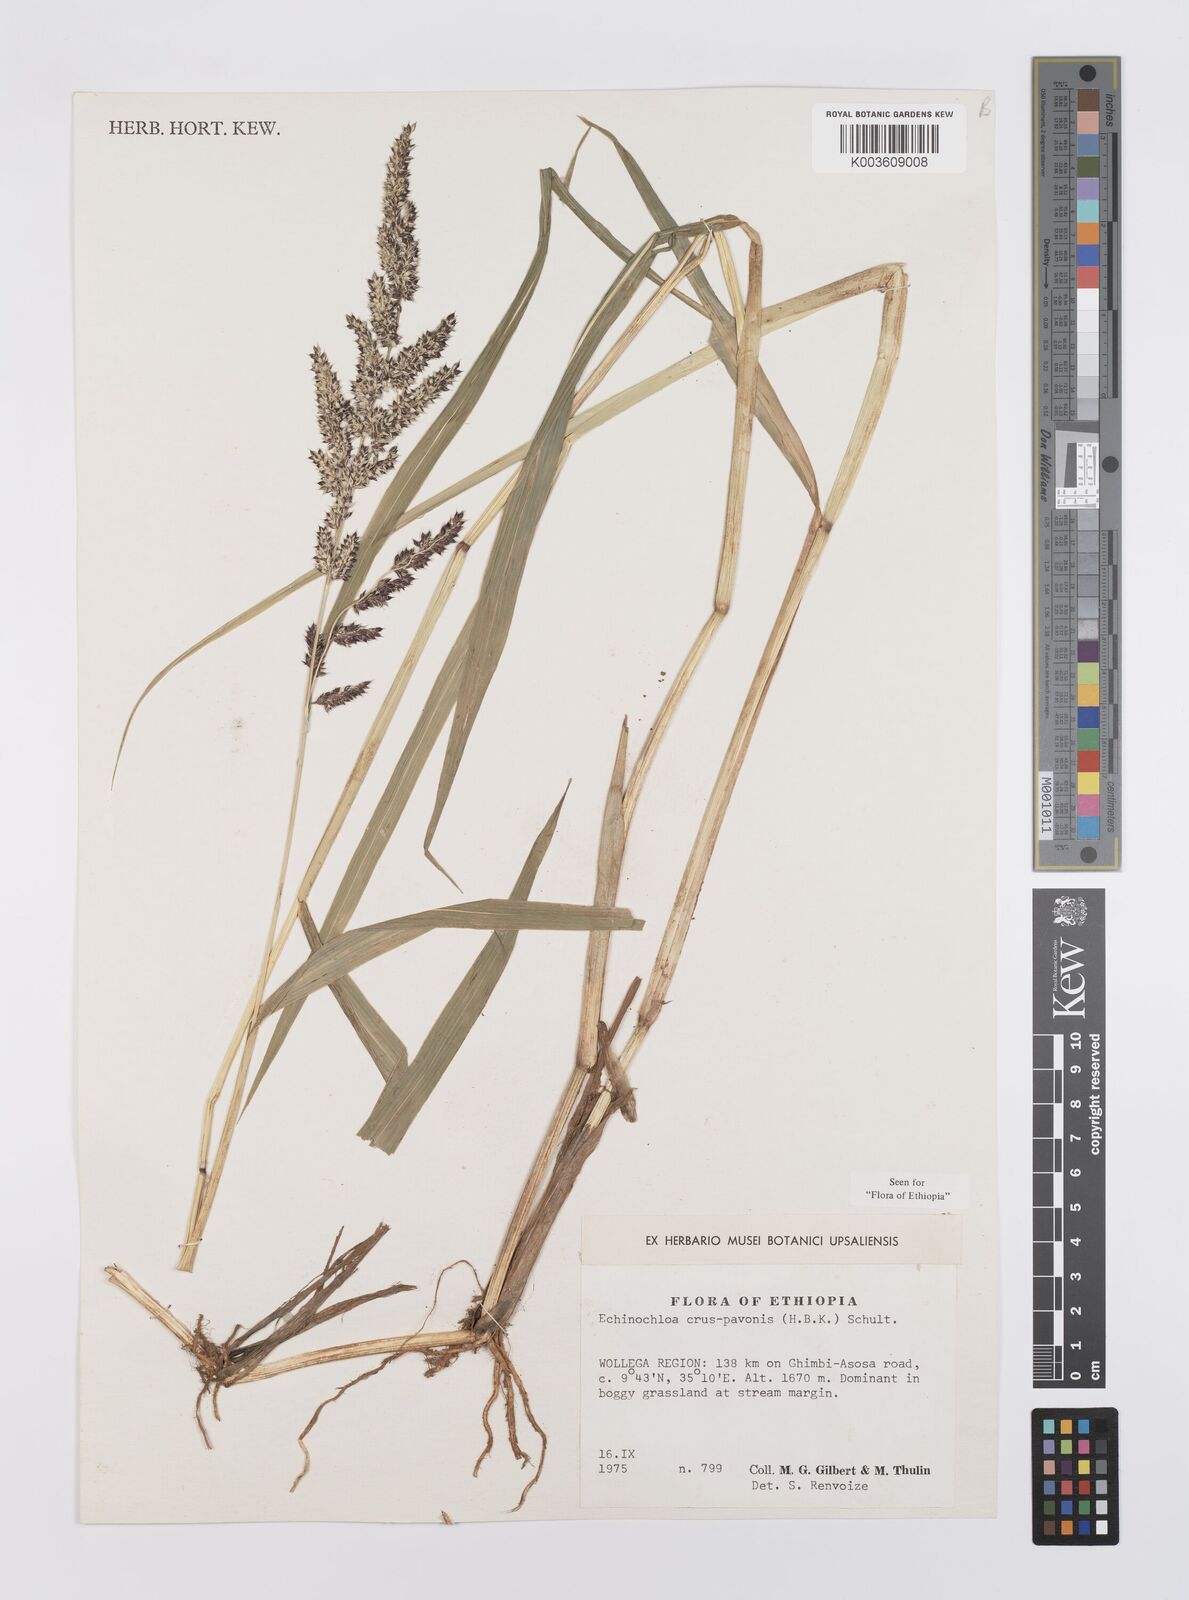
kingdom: Plantae
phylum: Tracheophyta
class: Liliopsida
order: Poales
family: Poaceae
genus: Echinochloa
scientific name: Echinochloa crus-pavonis
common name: Gulf cockspur grass
